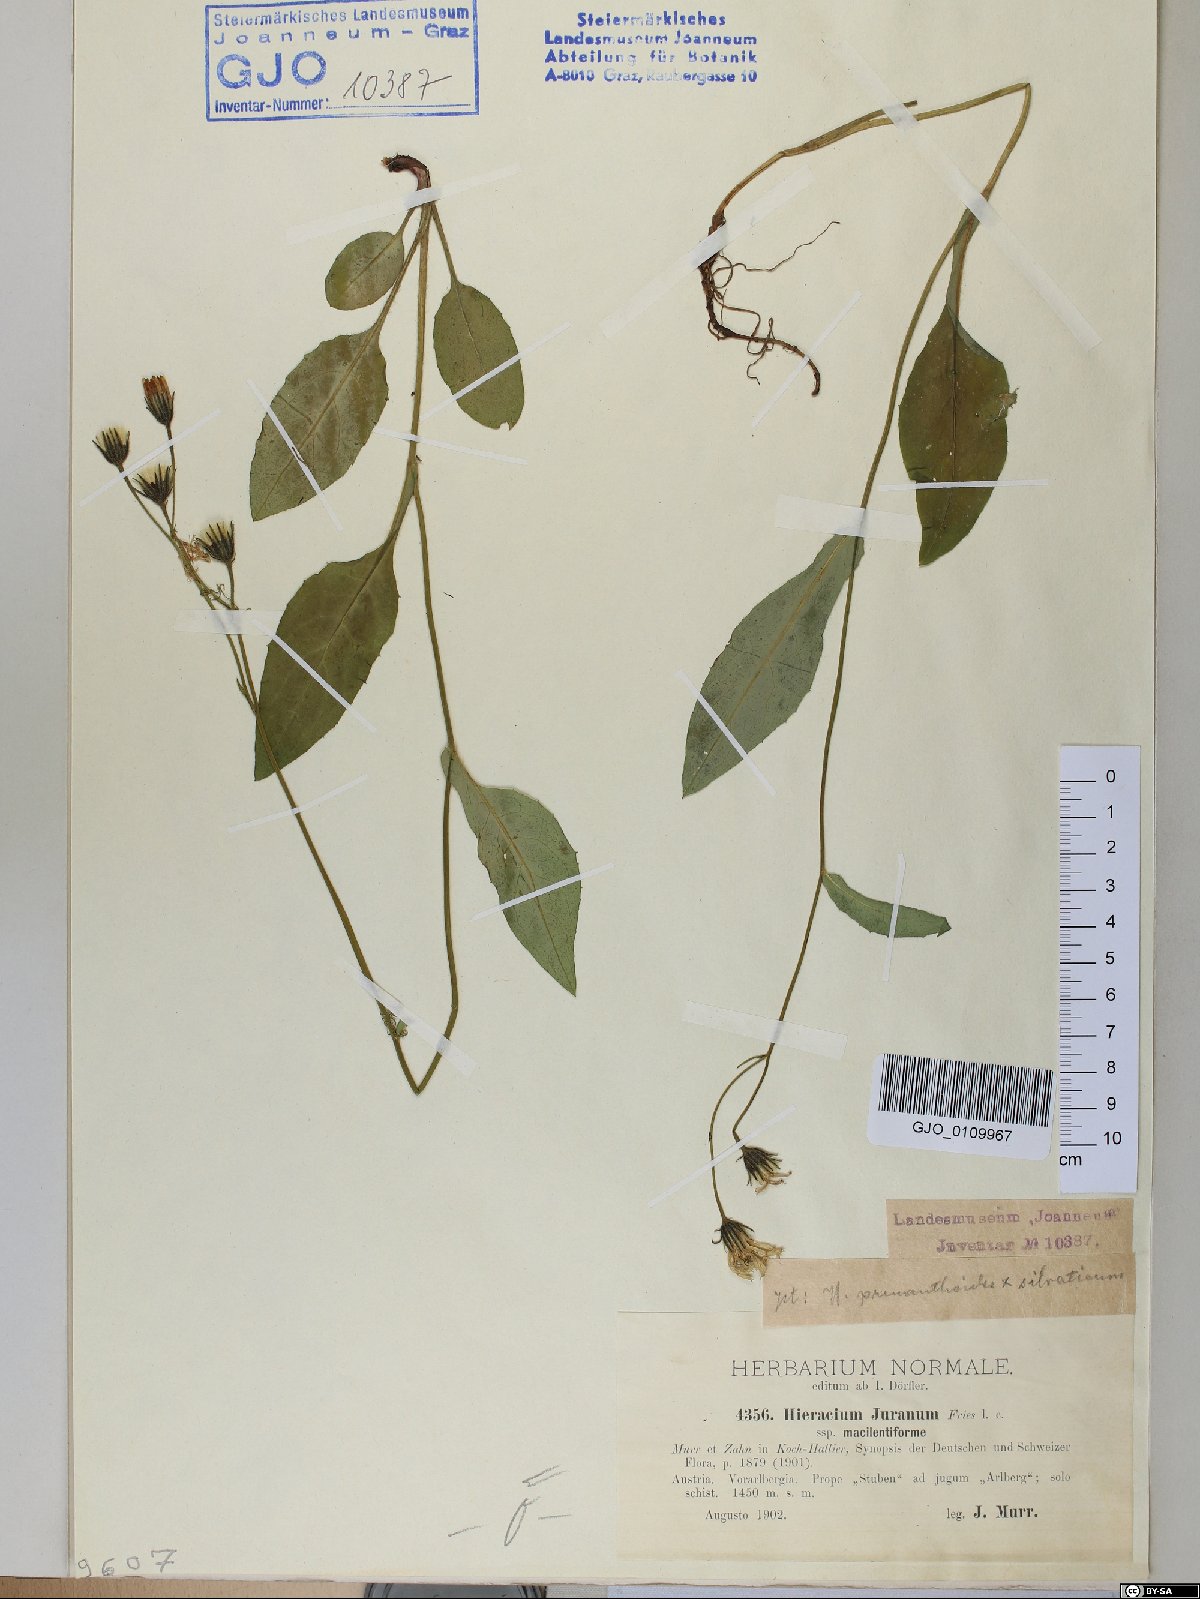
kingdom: Plantae
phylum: Tracheophyta
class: Magnoliopsida
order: Asterales
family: Asteraceae
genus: Hieracium
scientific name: Hieracium jurassicum
